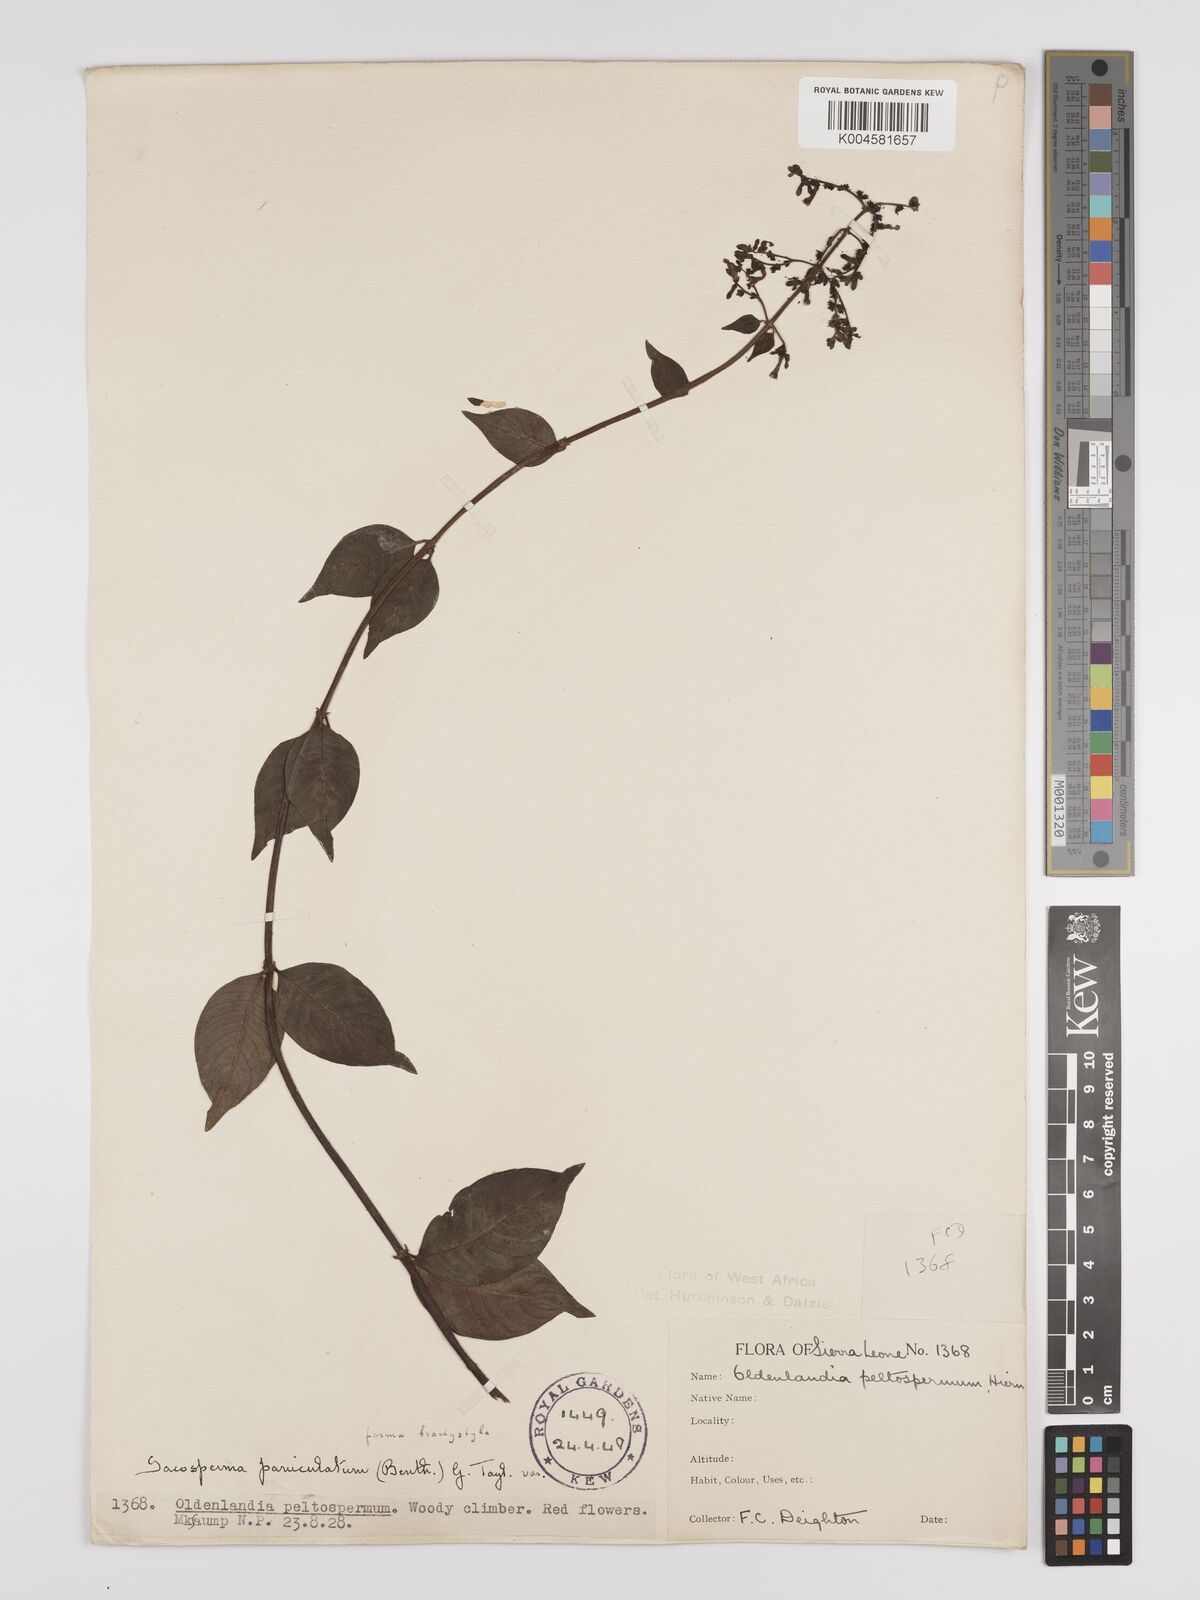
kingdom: Plantae
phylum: Tracheophyta
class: Magnoliopsida
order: Gentianales
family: Rubiaceae
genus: Sacosperma
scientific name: Sacosperma paniculatum
